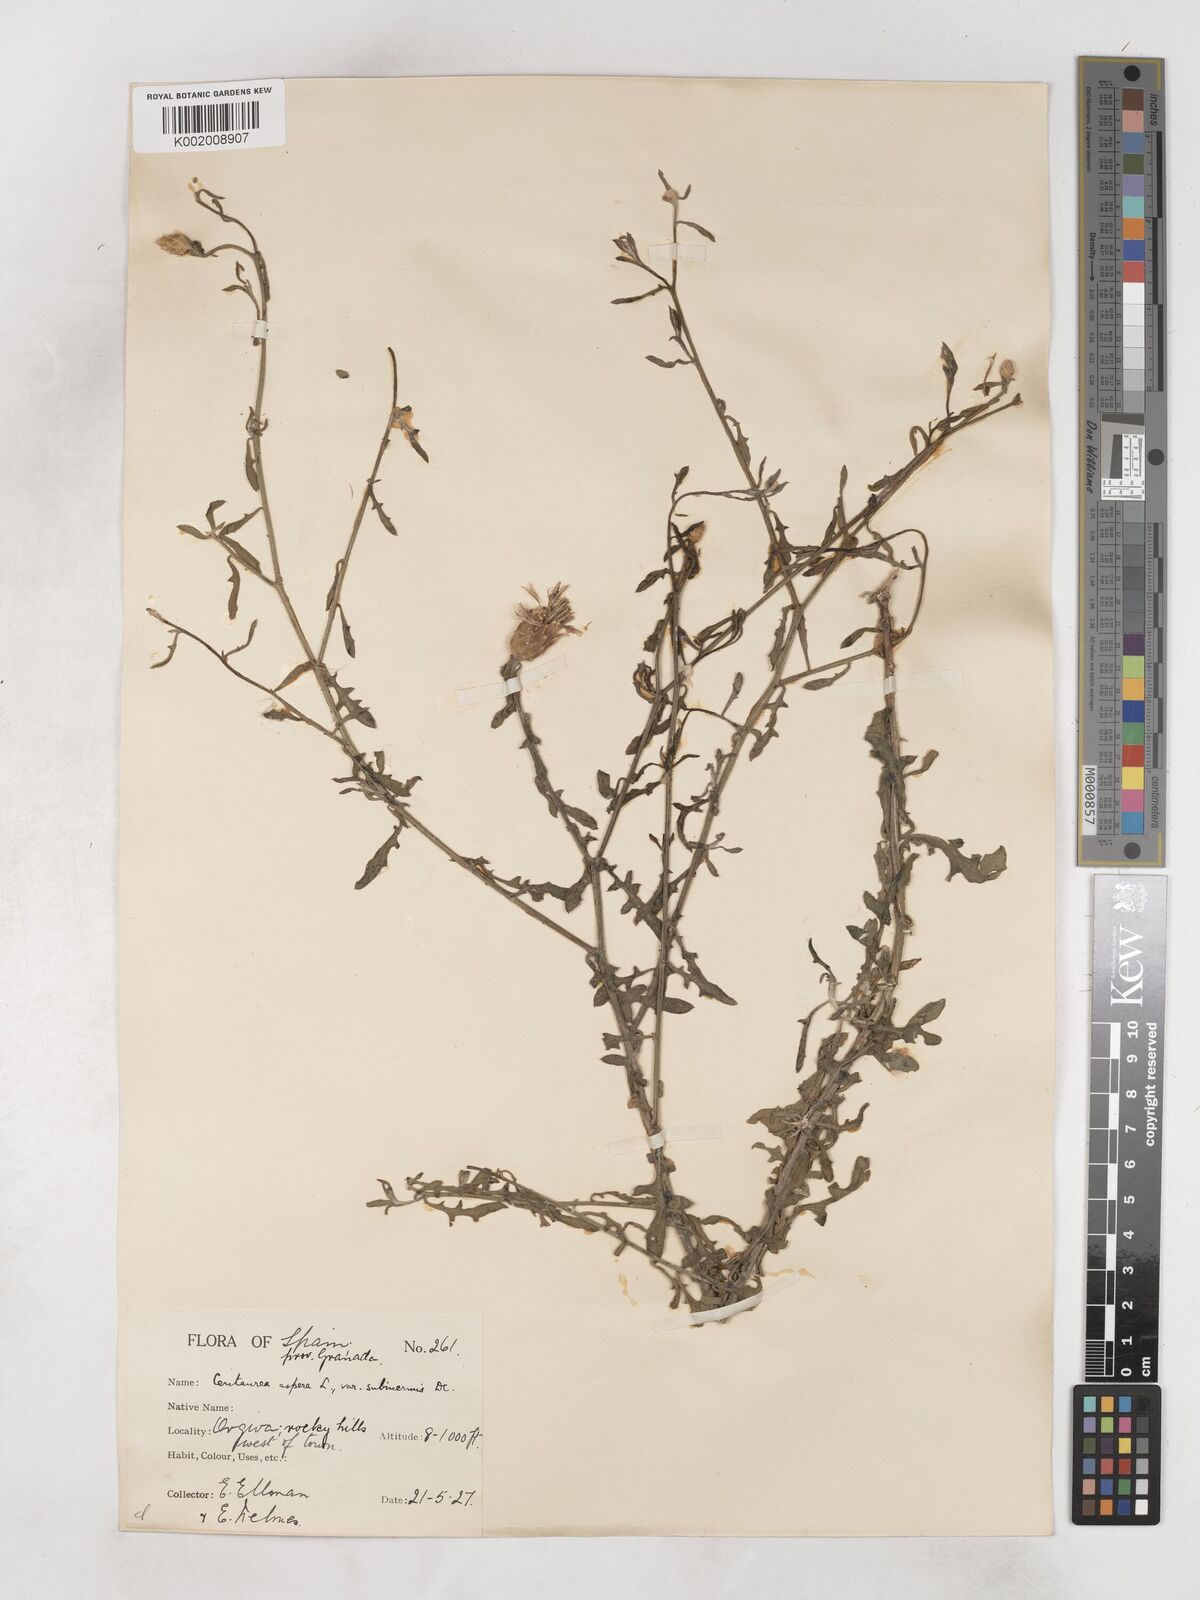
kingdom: Plantae
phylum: Tracheophyta
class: Magnoliopsida
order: Asterales
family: Asteraceae
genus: Centaurea
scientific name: Centaurea aspera
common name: Rough star-thistle
